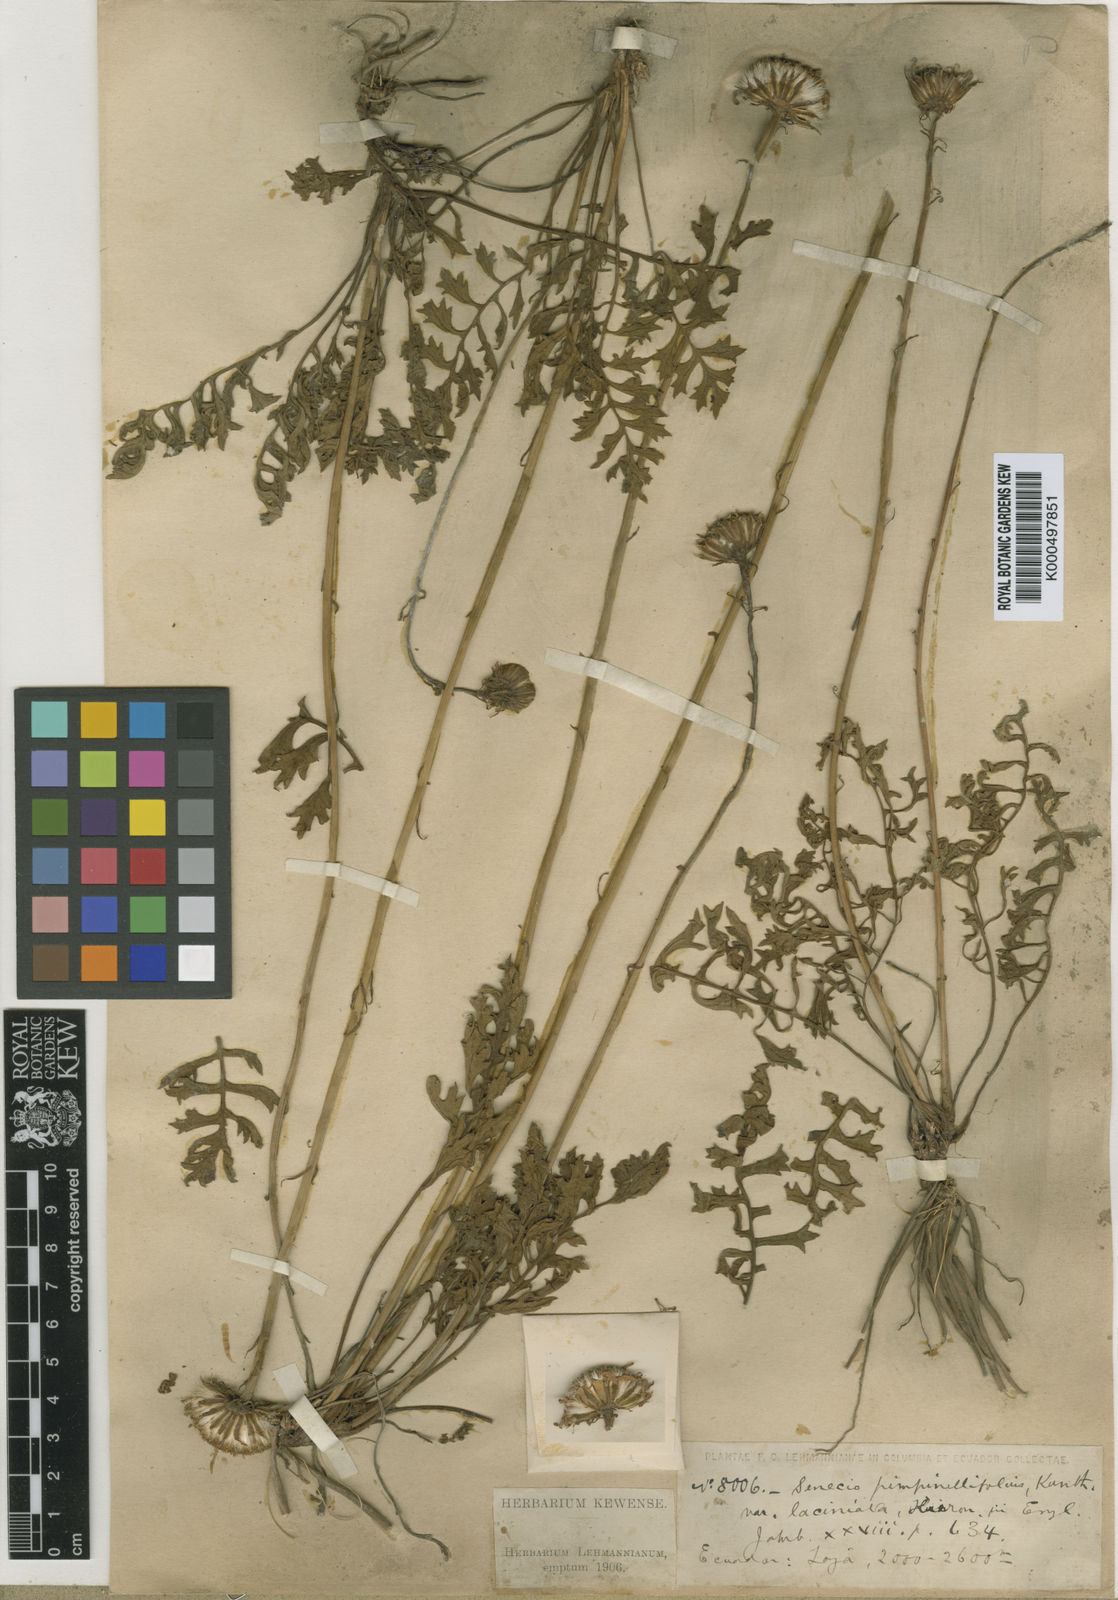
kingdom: Plantae
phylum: Tracheophyta
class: Magnoliopsida
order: Asterales
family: Asteraceae
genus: Dorobaea
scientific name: Dorobaea pimpinellifolia
